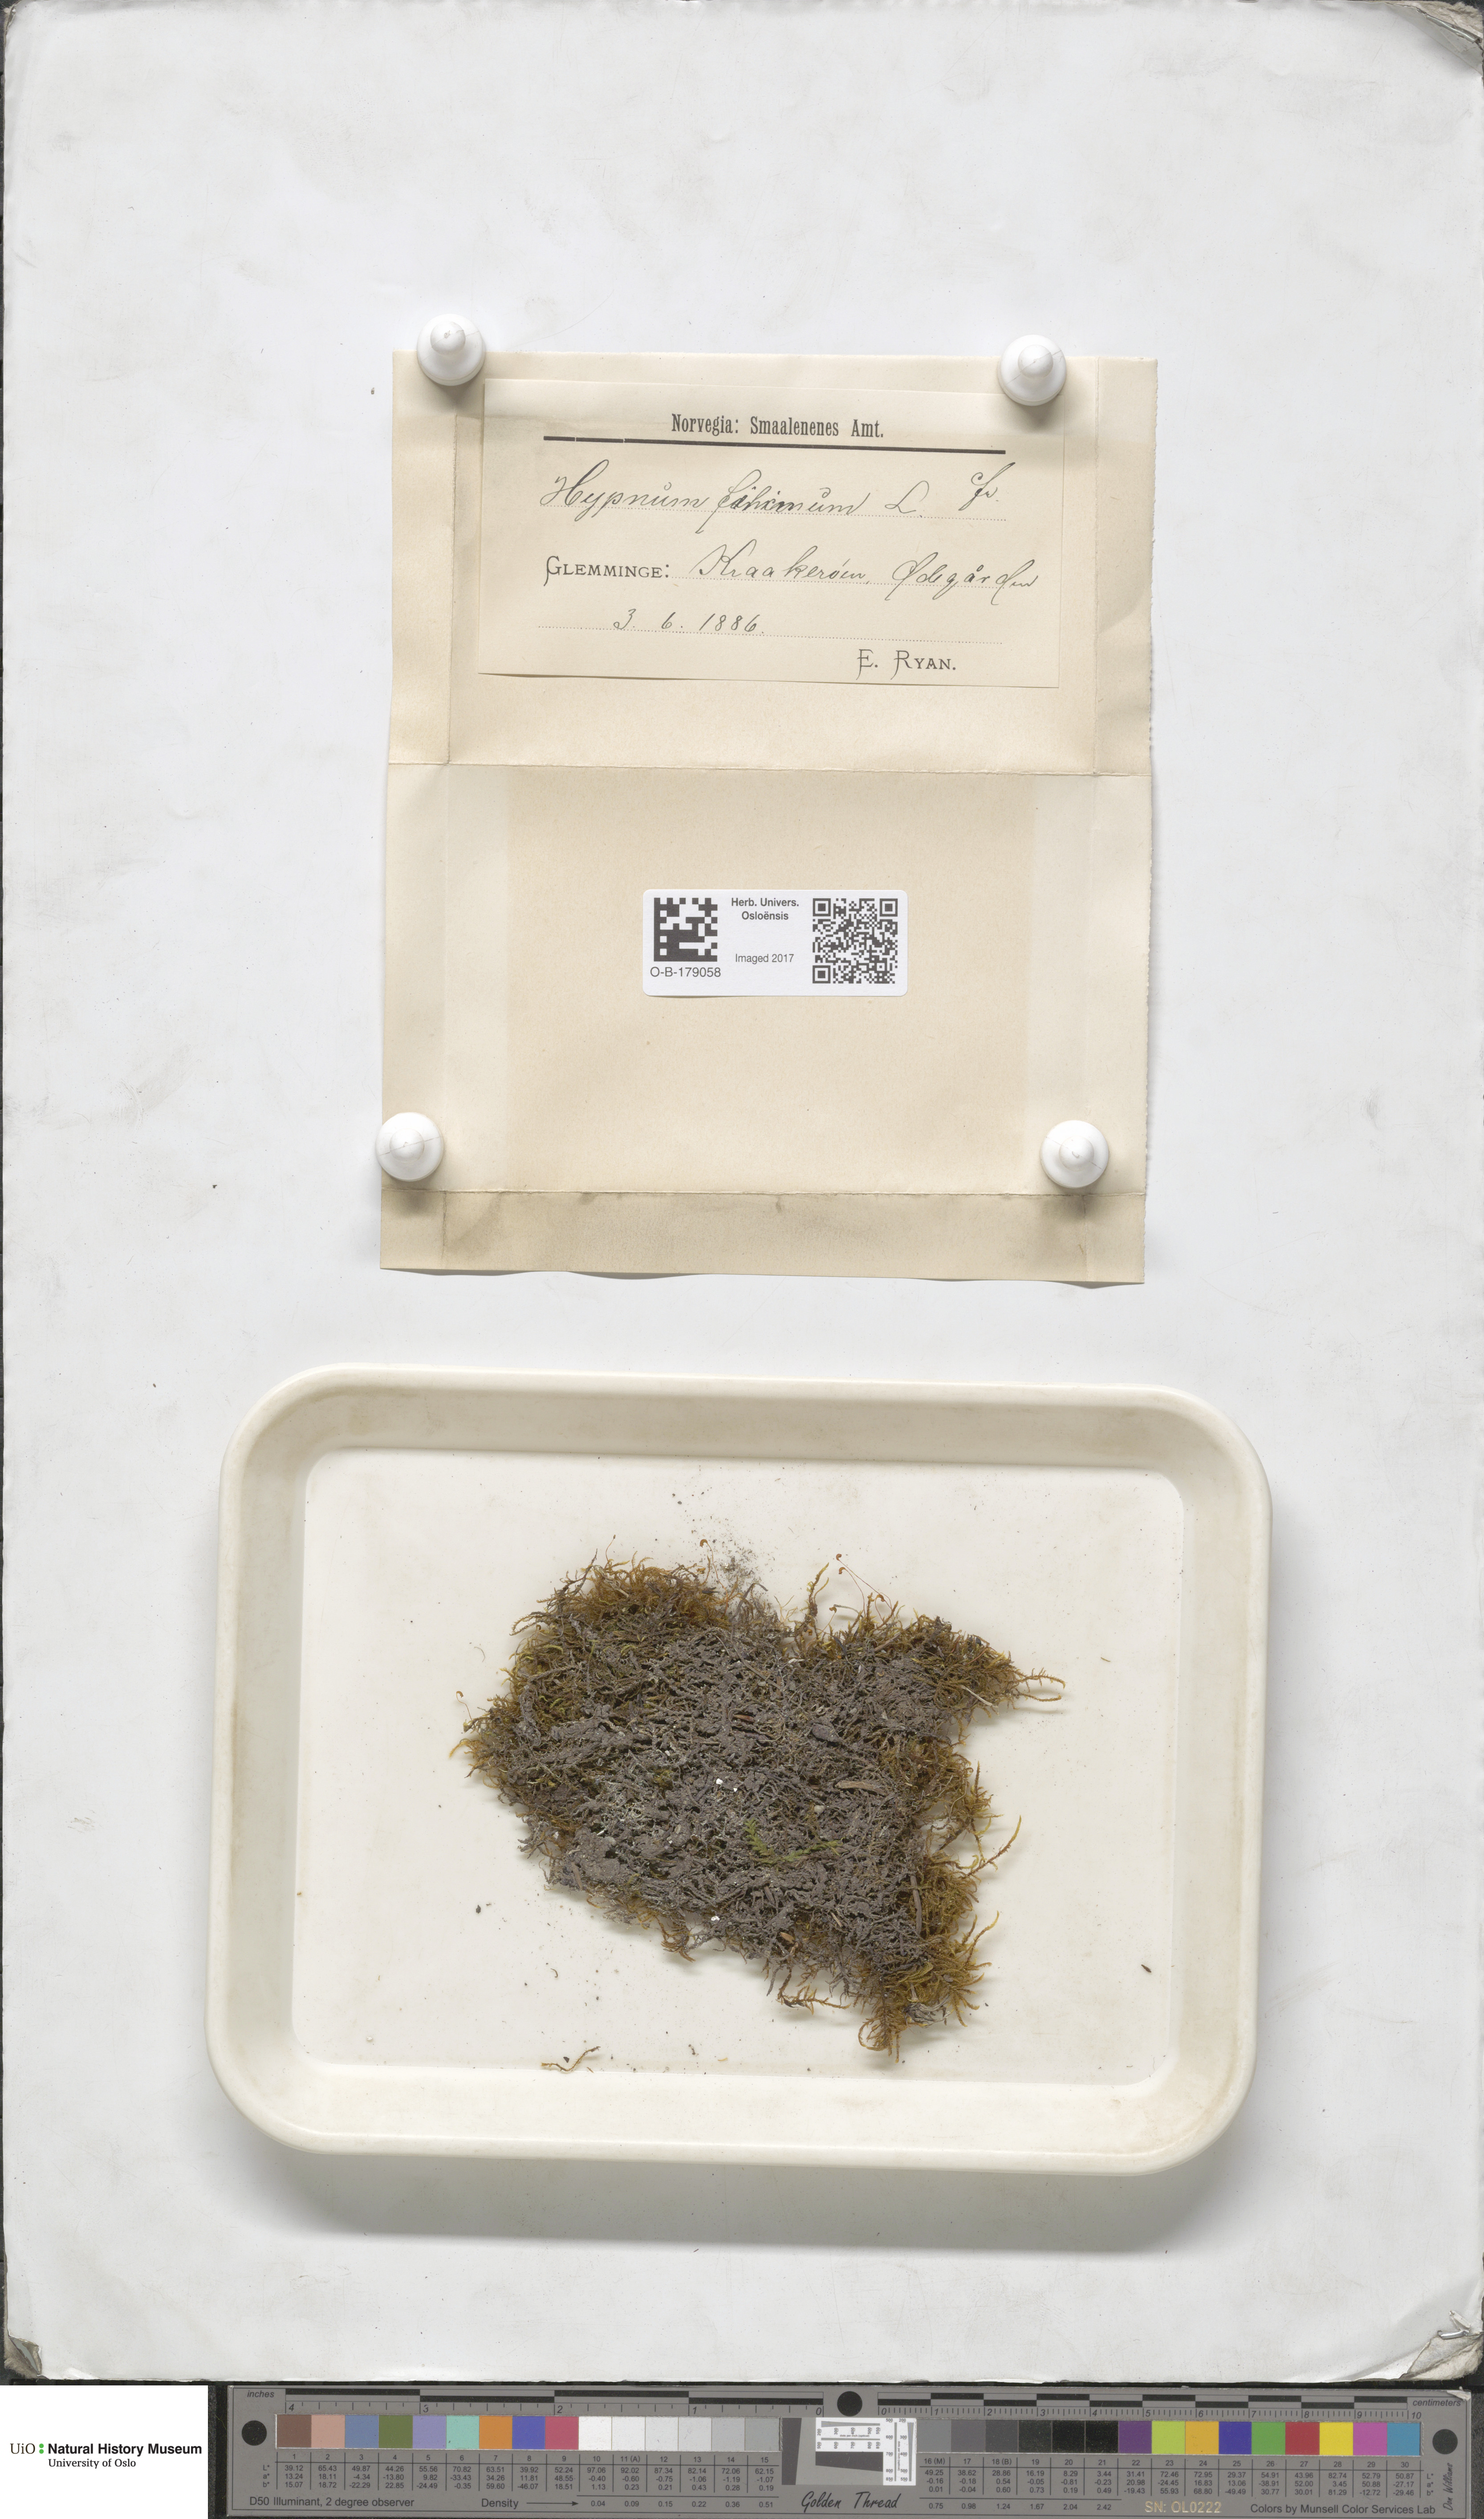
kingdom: Plantae
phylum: Bryophyta
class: Bryopsida
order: Hypnales
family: Amblystegiaceae
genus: Cratoneuron
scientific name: Cratoneuron filicinum
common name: Fern-leaved hook moss
